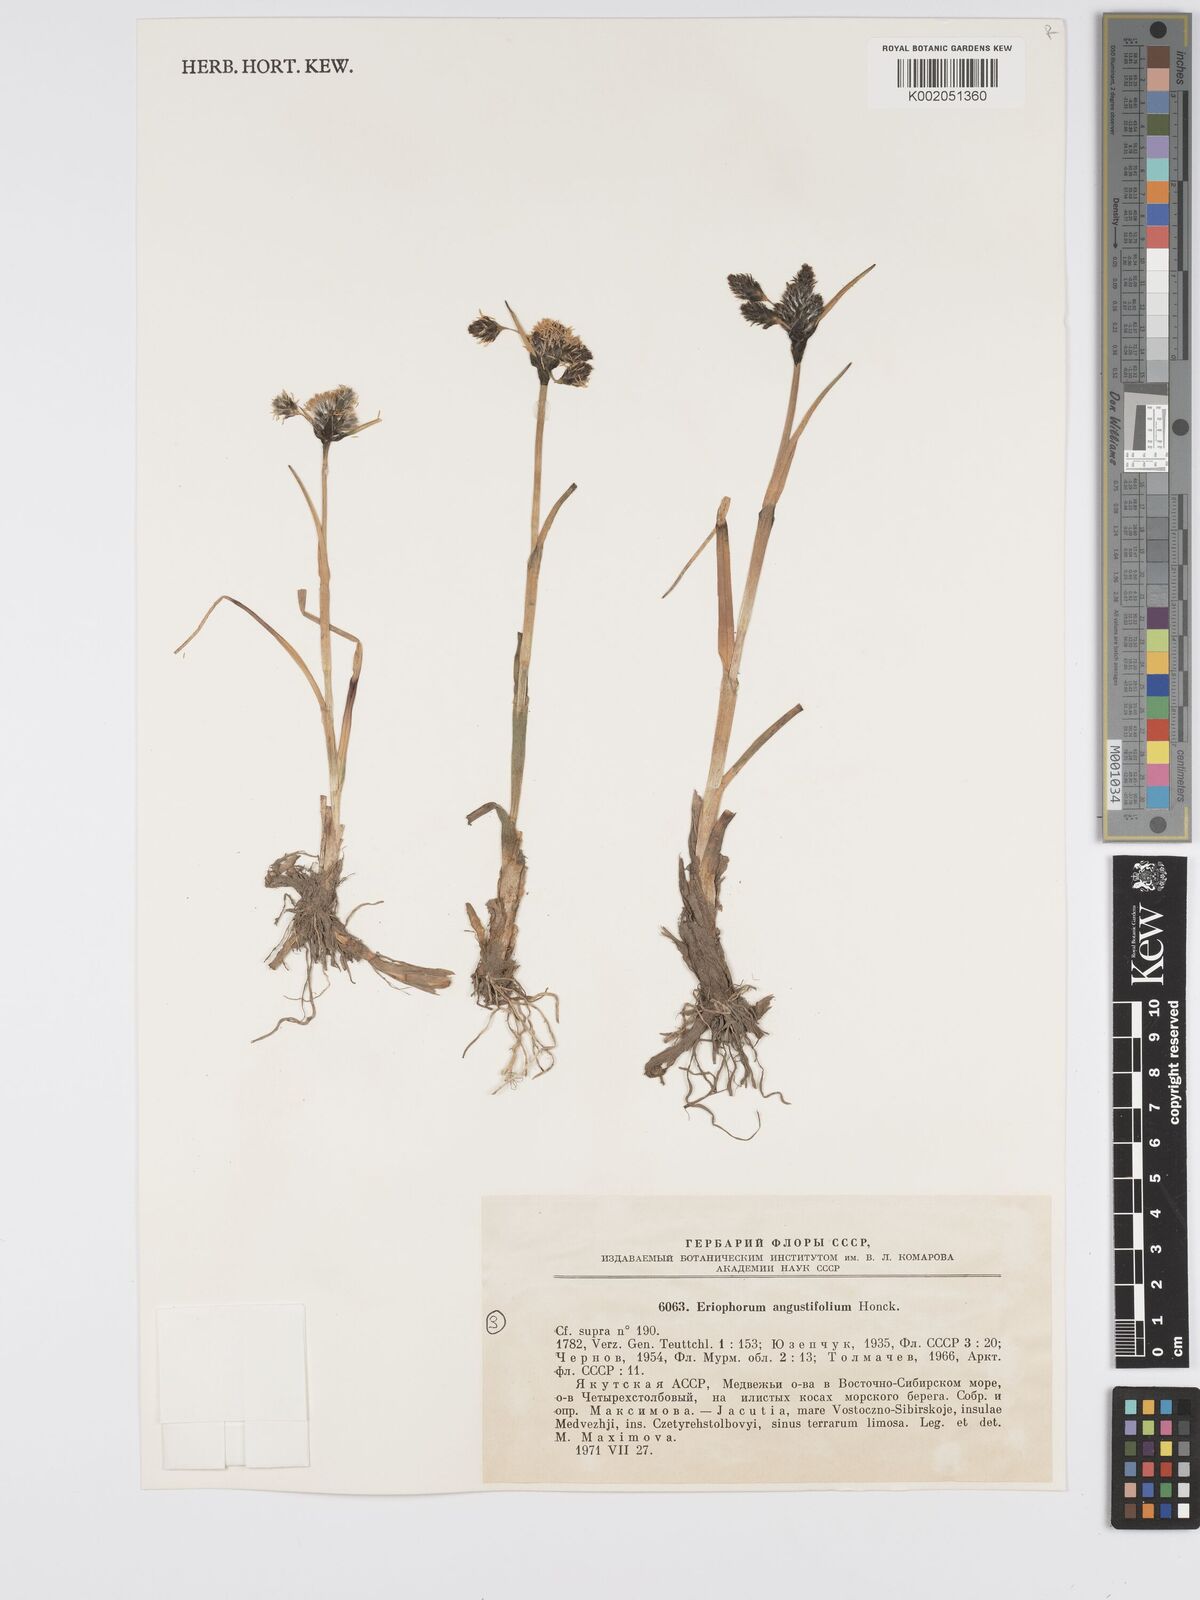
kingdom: Plantae
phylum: Tracheophyta
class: Liliopsida
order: Poales
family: Cyperaceae
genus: Eriophorum
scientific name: Eriophorum angustifolium
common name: Common cottongrass
